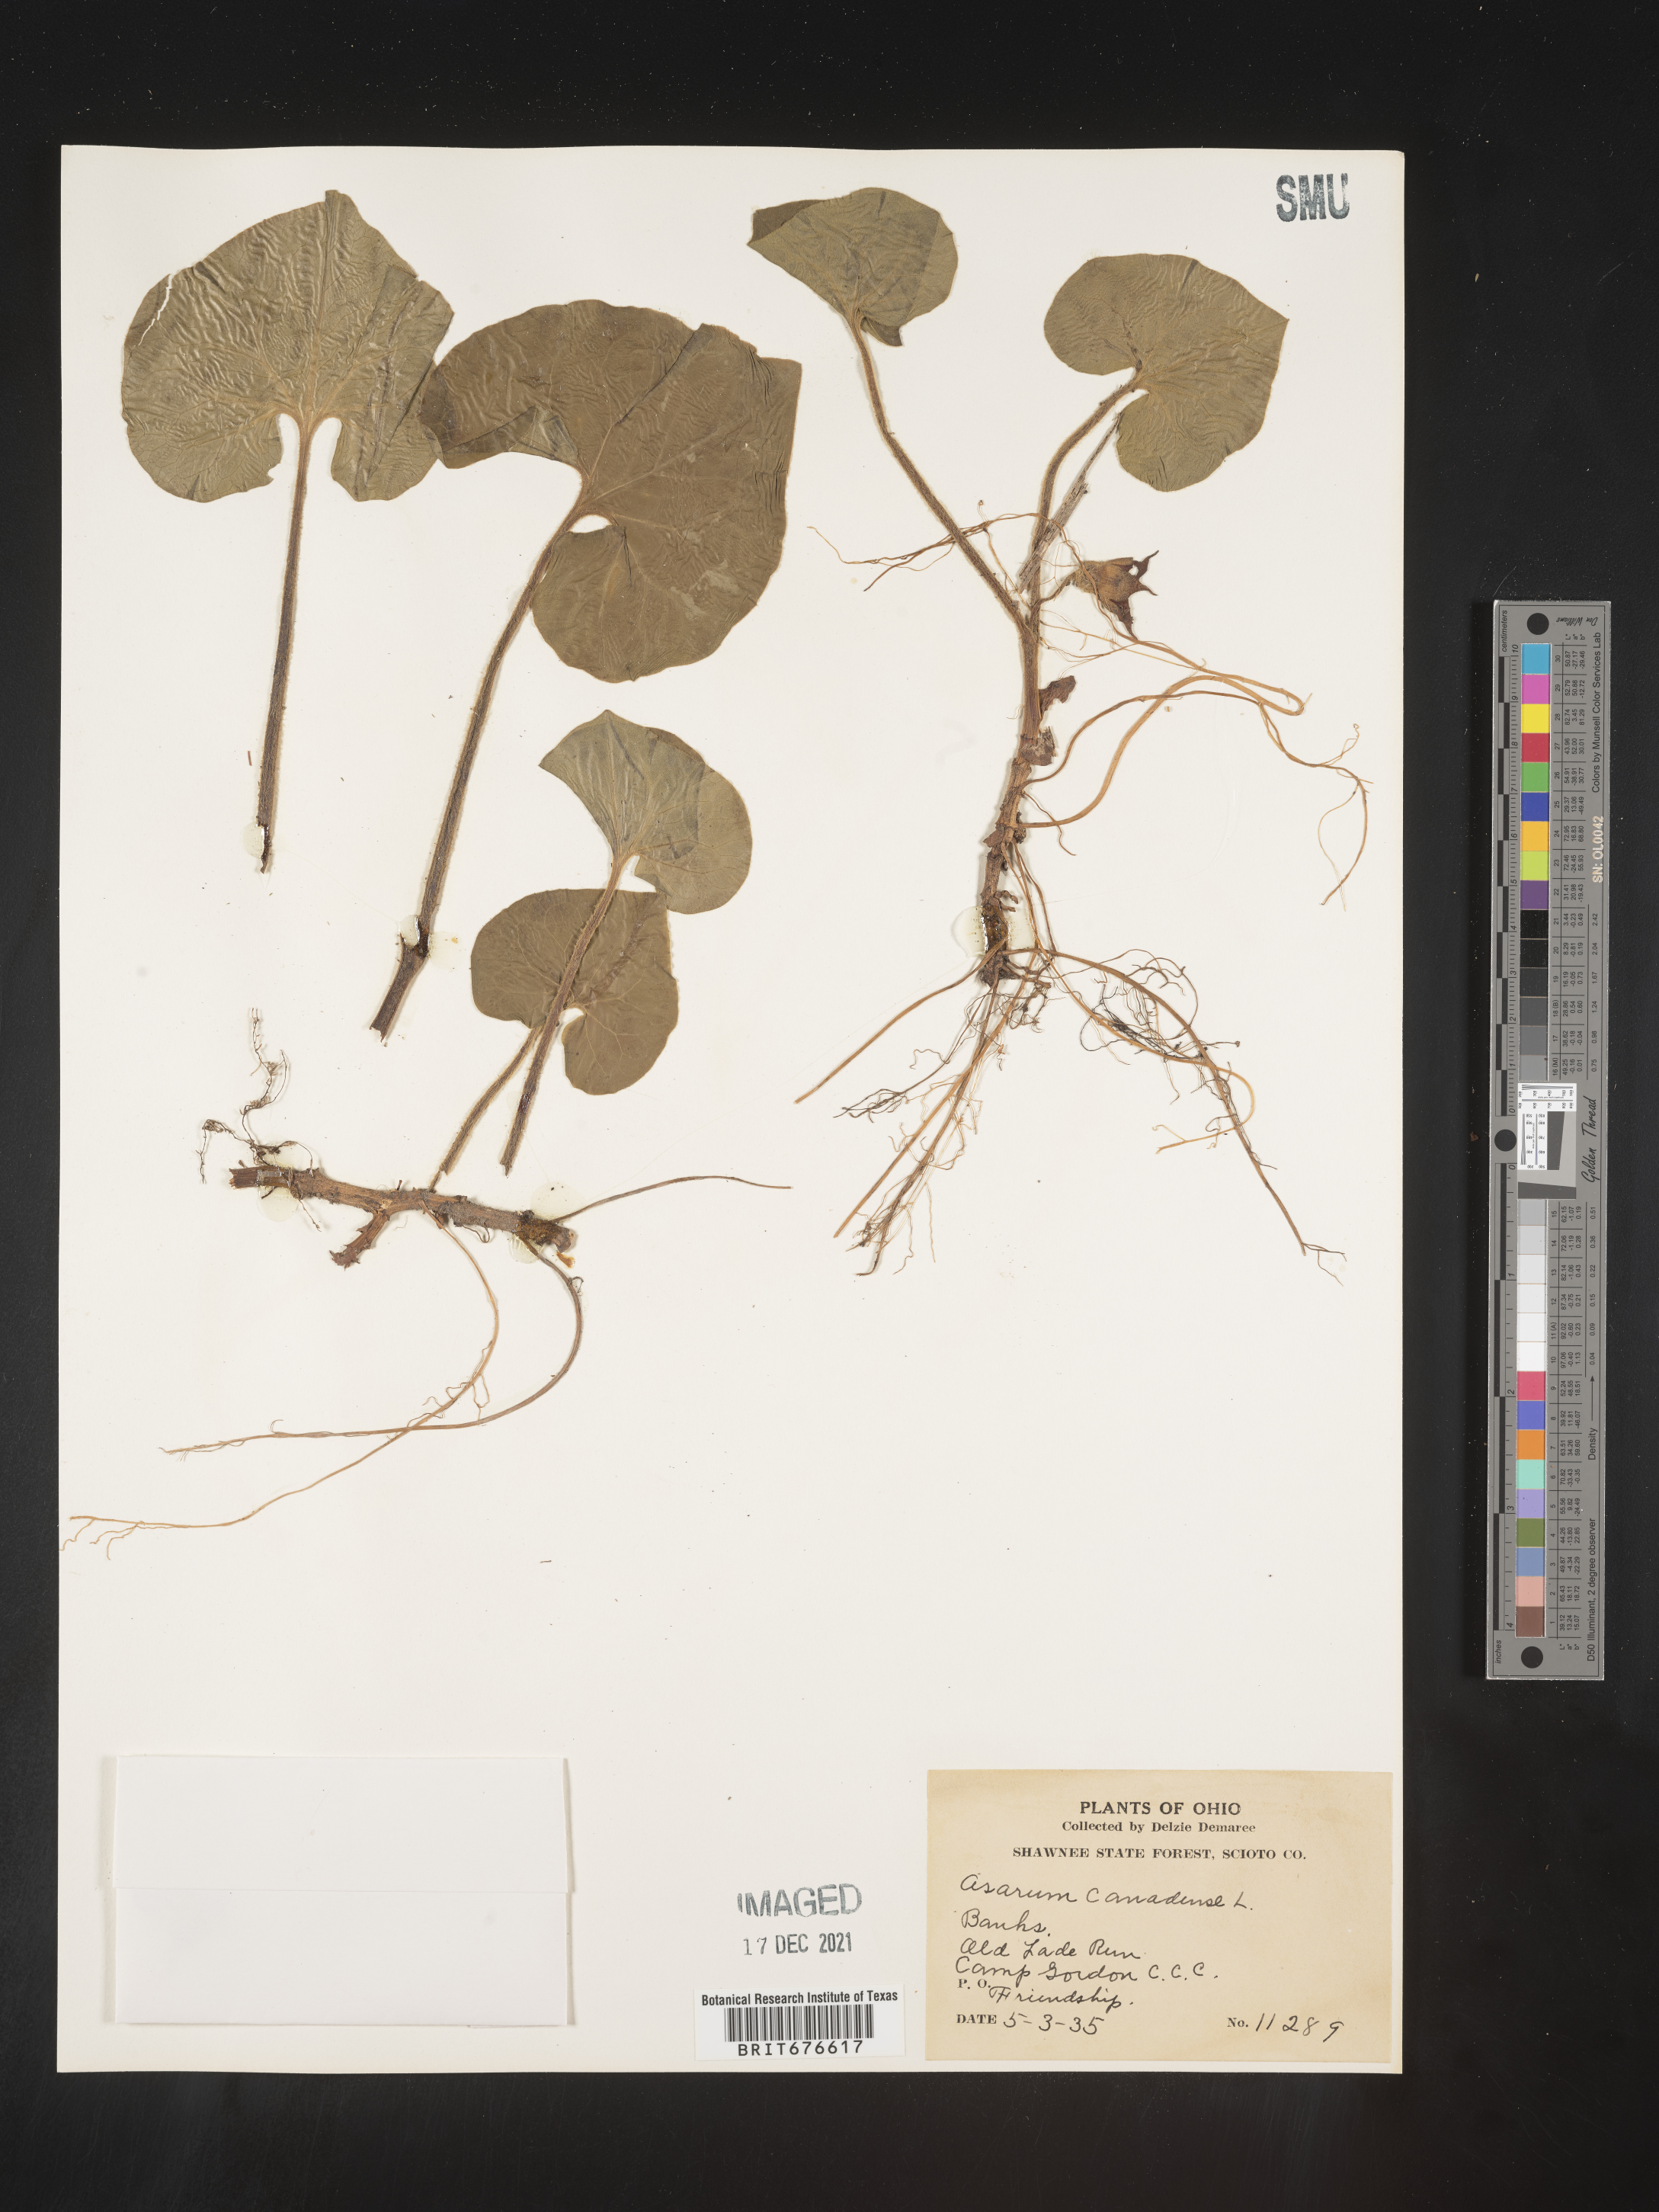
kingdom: Plantae
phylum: Tracheophyta
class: Magnoliopsida
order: Piperales
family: Aristolochiaceae
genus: Asarum
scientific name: Asarum canadense
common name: Wild ginger
